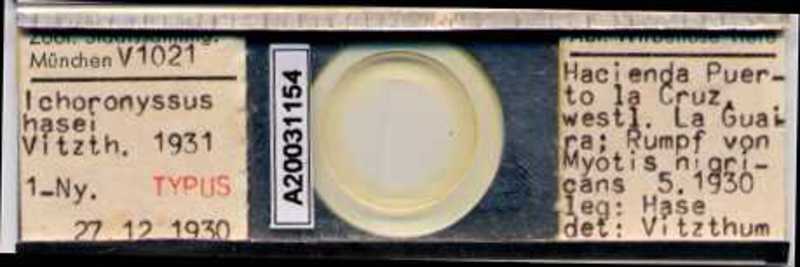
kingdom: Animalia
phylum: Arthropoda
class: Arachnida
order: Mesostigmata
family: Macronyssidae
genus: Macronyssus
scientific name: Macronyssus crosbyi
